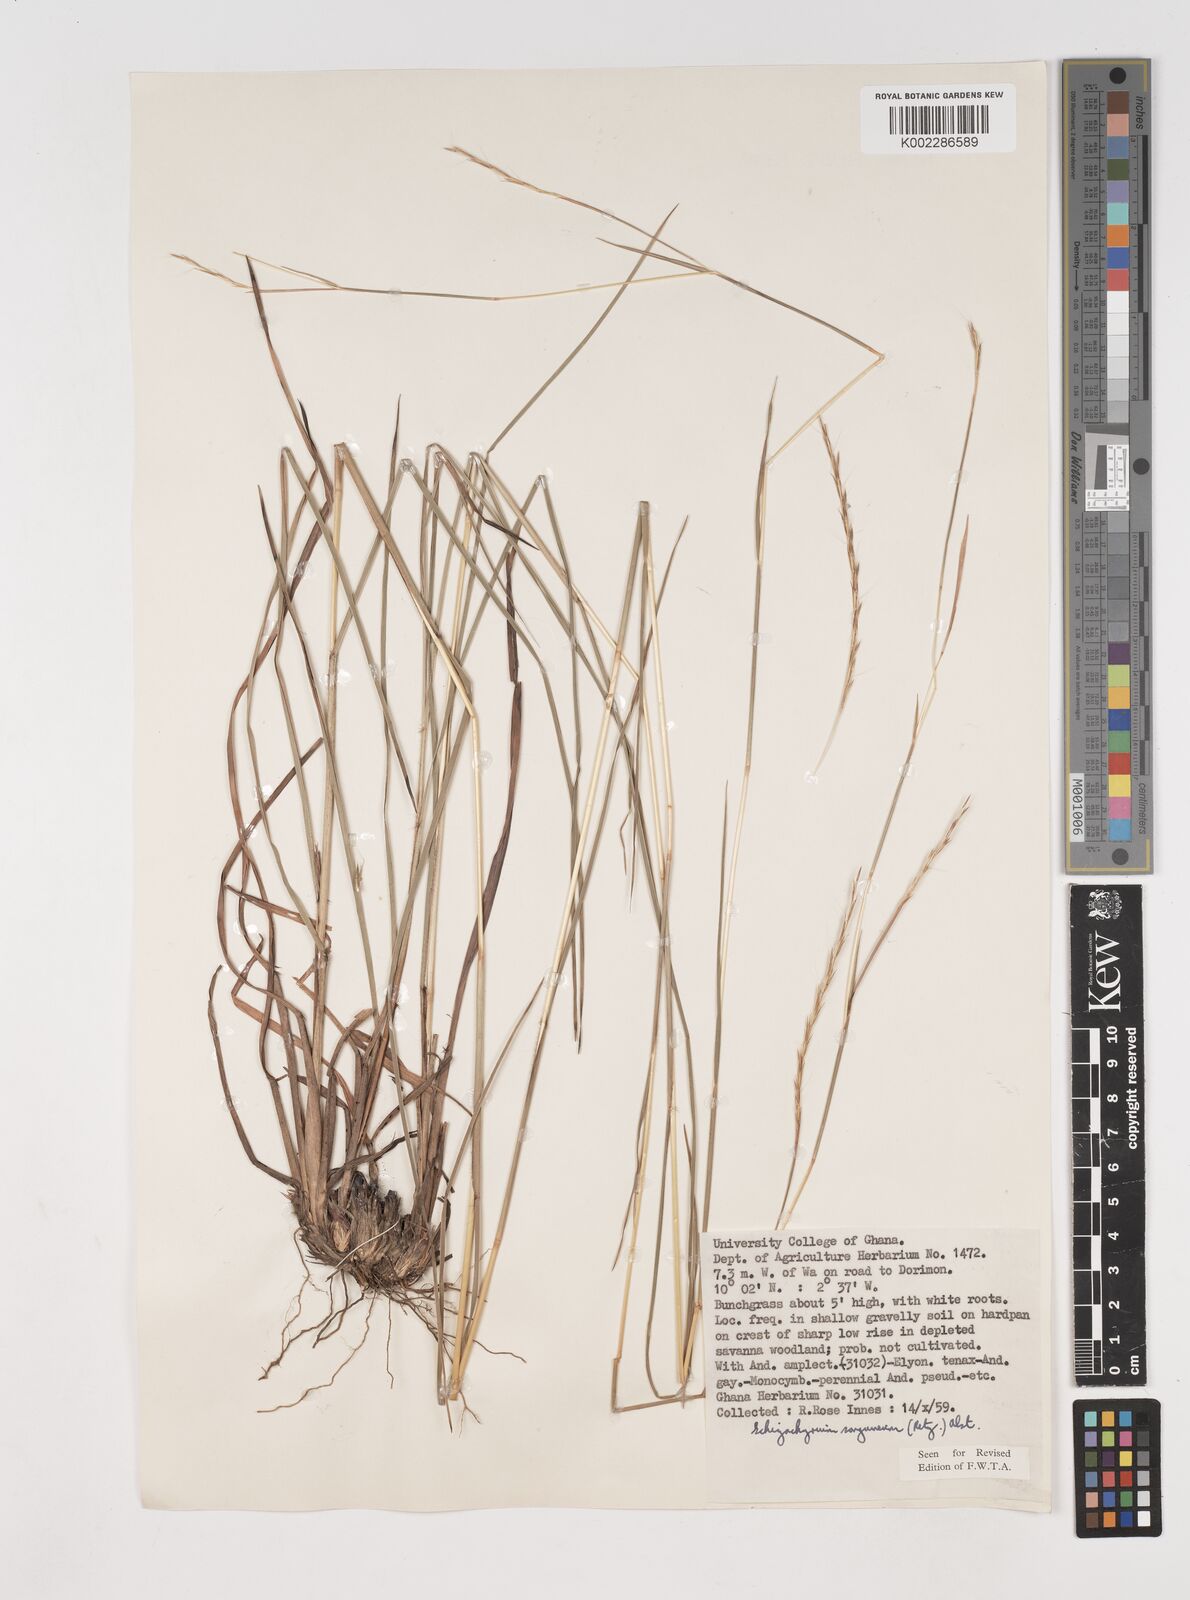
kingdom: Plantae
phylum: Tracheophyta
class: Liliopsida
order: Poales
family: Poaceae
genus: Schizachyrium
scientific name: Schizachyrium sanguineum
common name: Crimson bluestem
